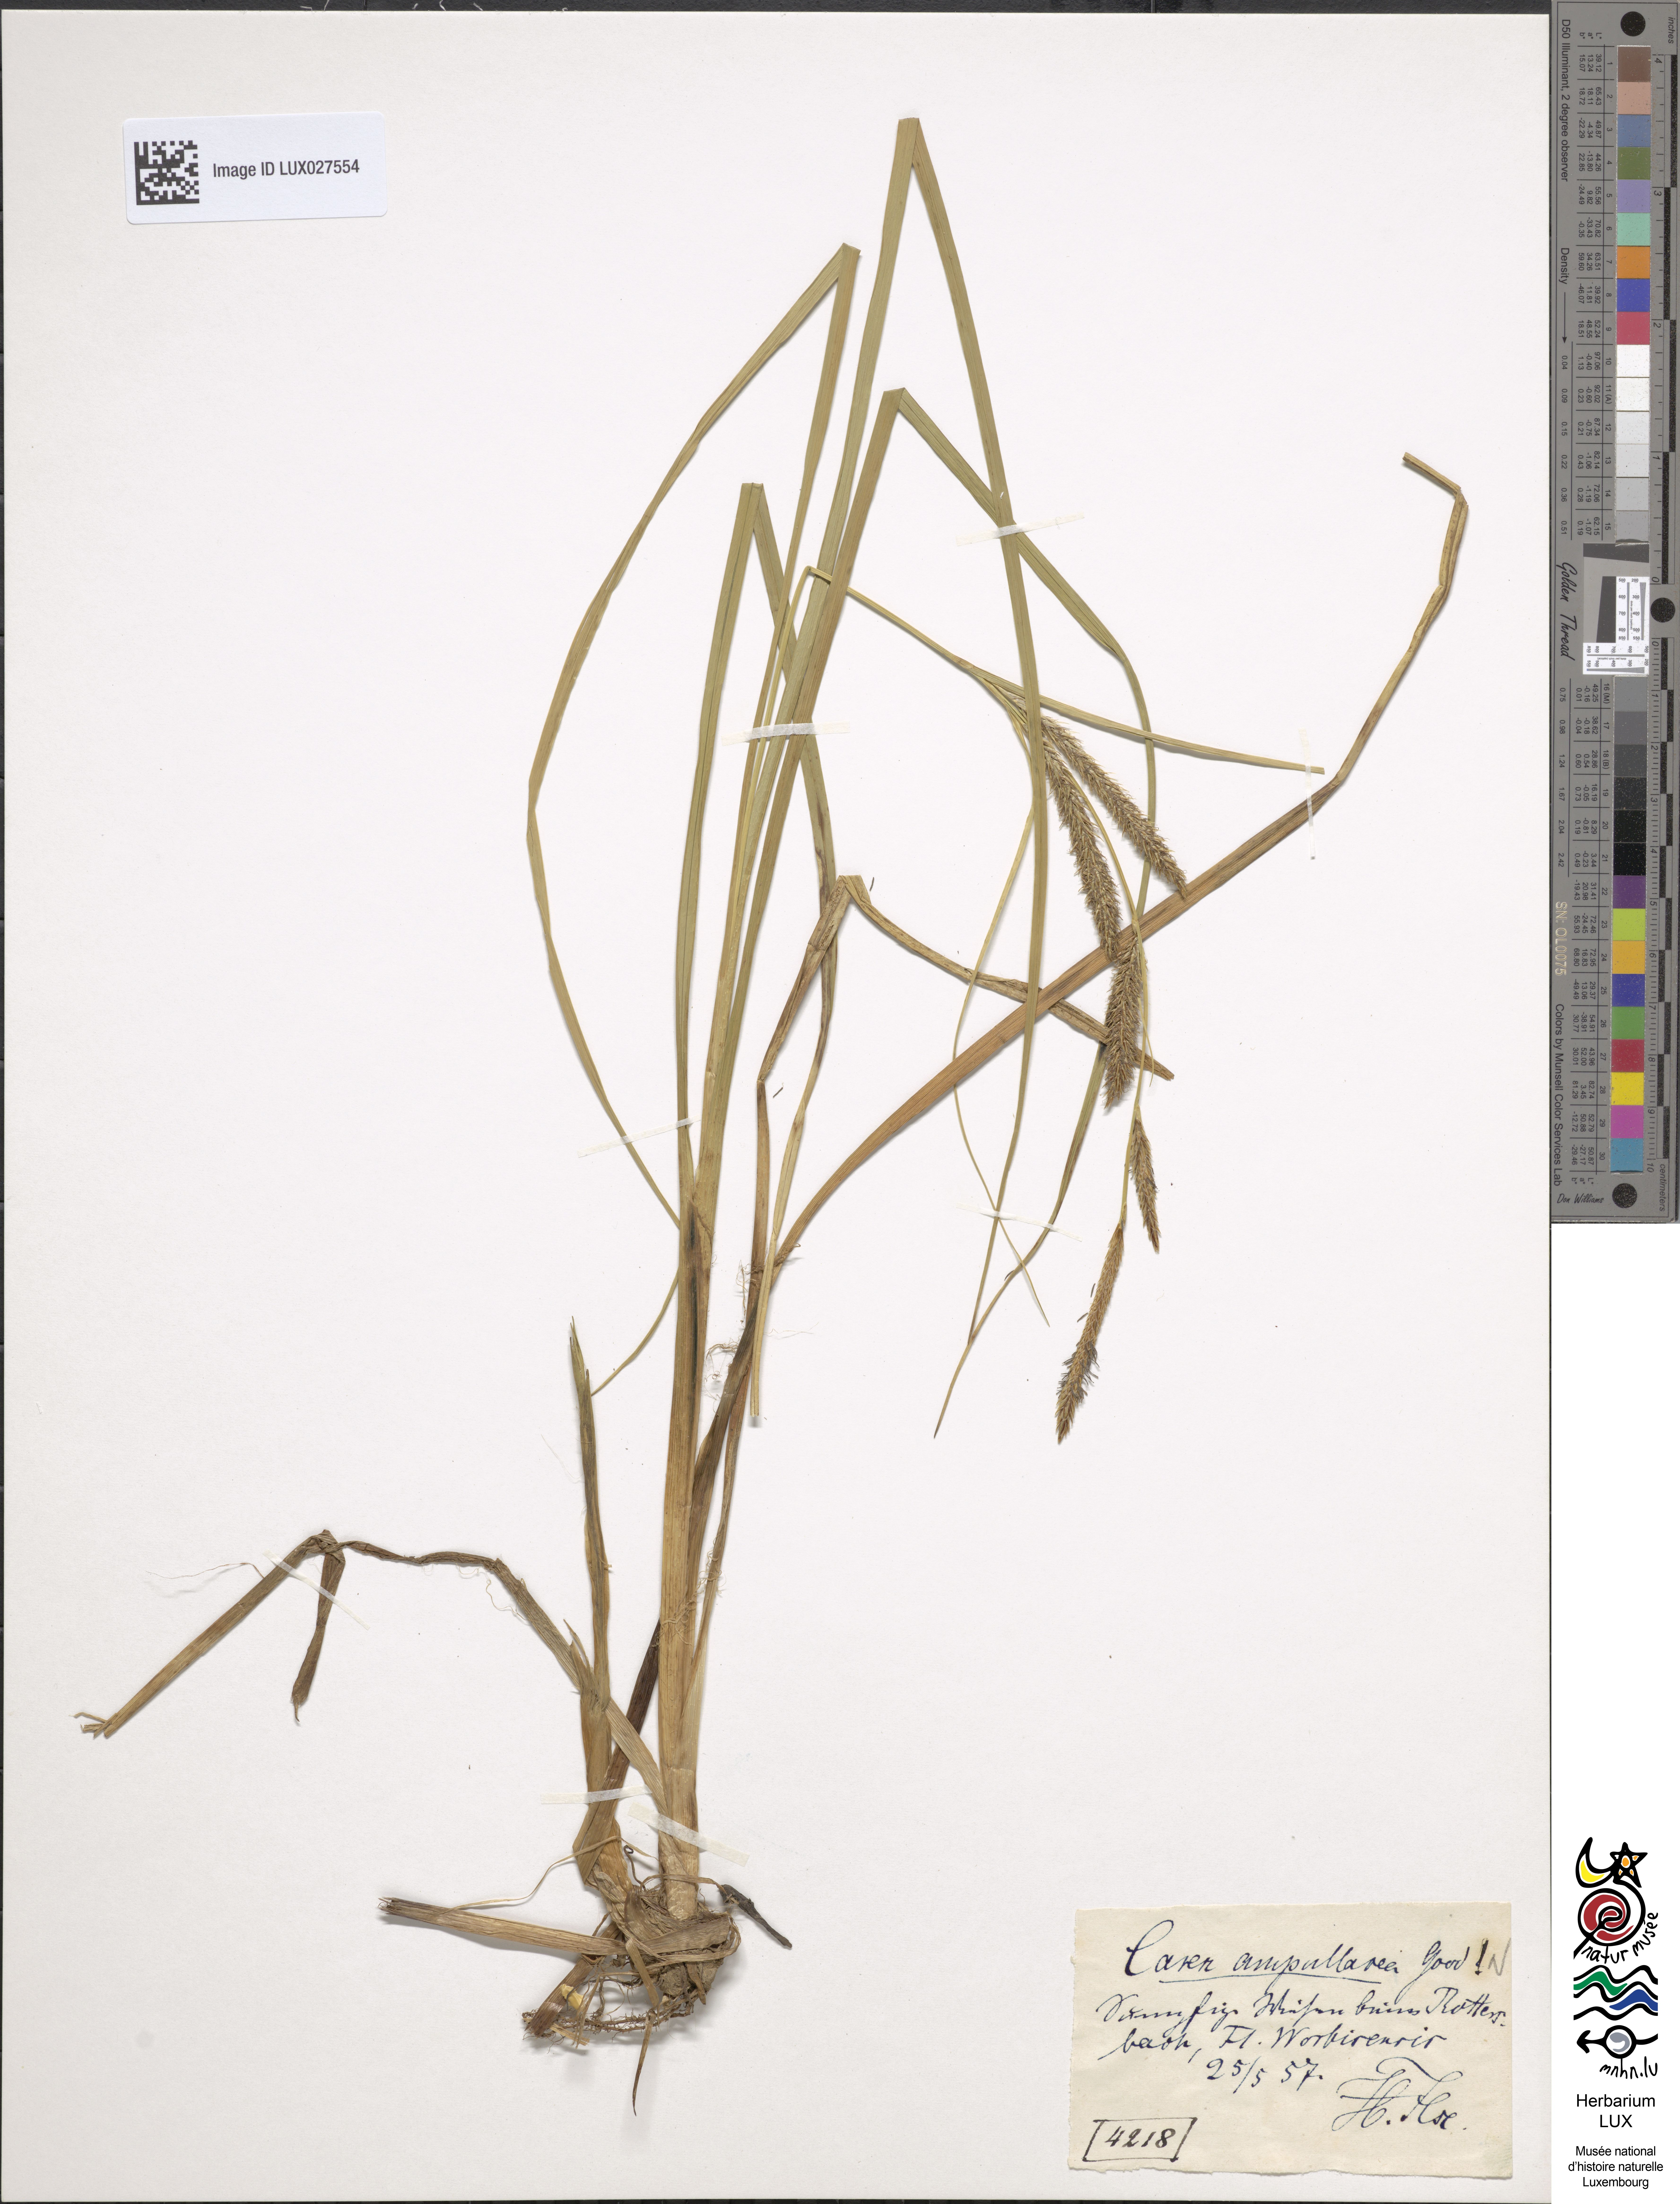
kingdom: Plantae
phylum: Tracheophyta
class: Liliopsida
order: Poales
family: Cyperaceae
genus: Carex
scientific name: Carex rostrata
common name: Bottle sedge
